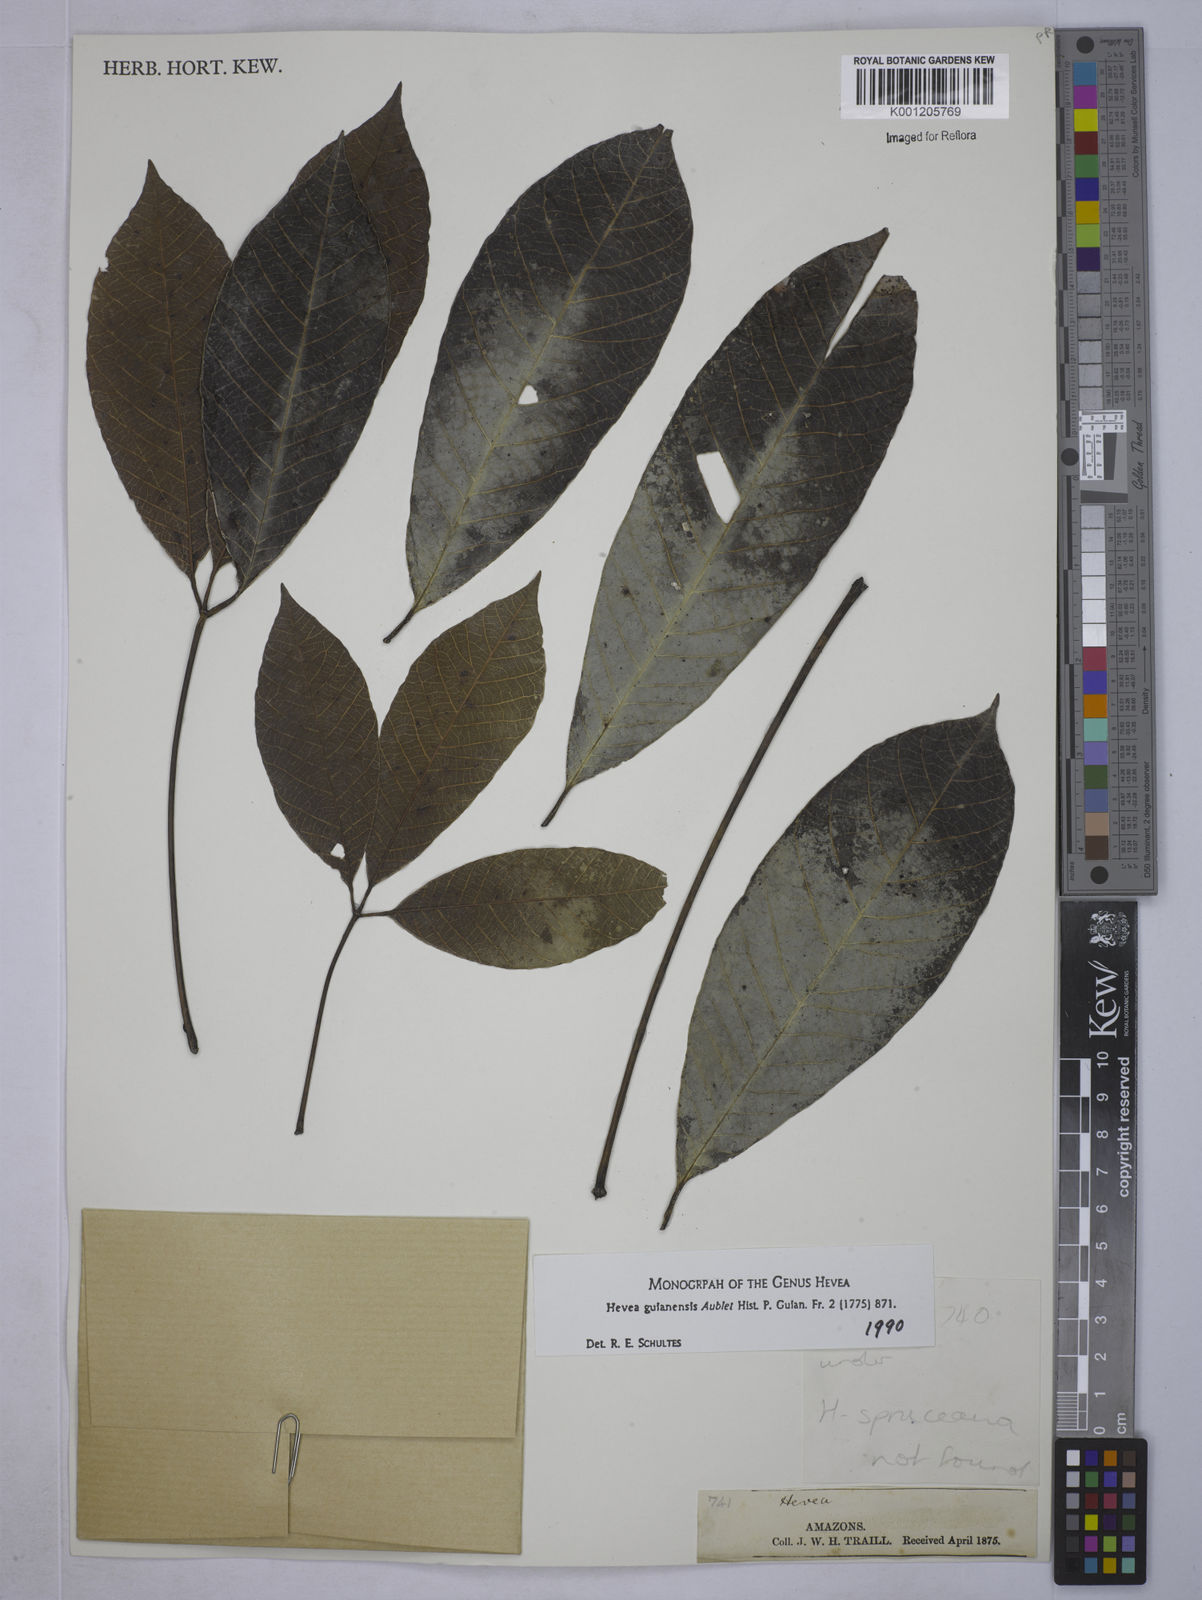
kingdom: Plantae
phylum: Tracheophyta
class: Magnoliopsida
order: Malpighiales
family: Euphorbiaceae
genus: Hevea
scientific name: Hevea guianensis
